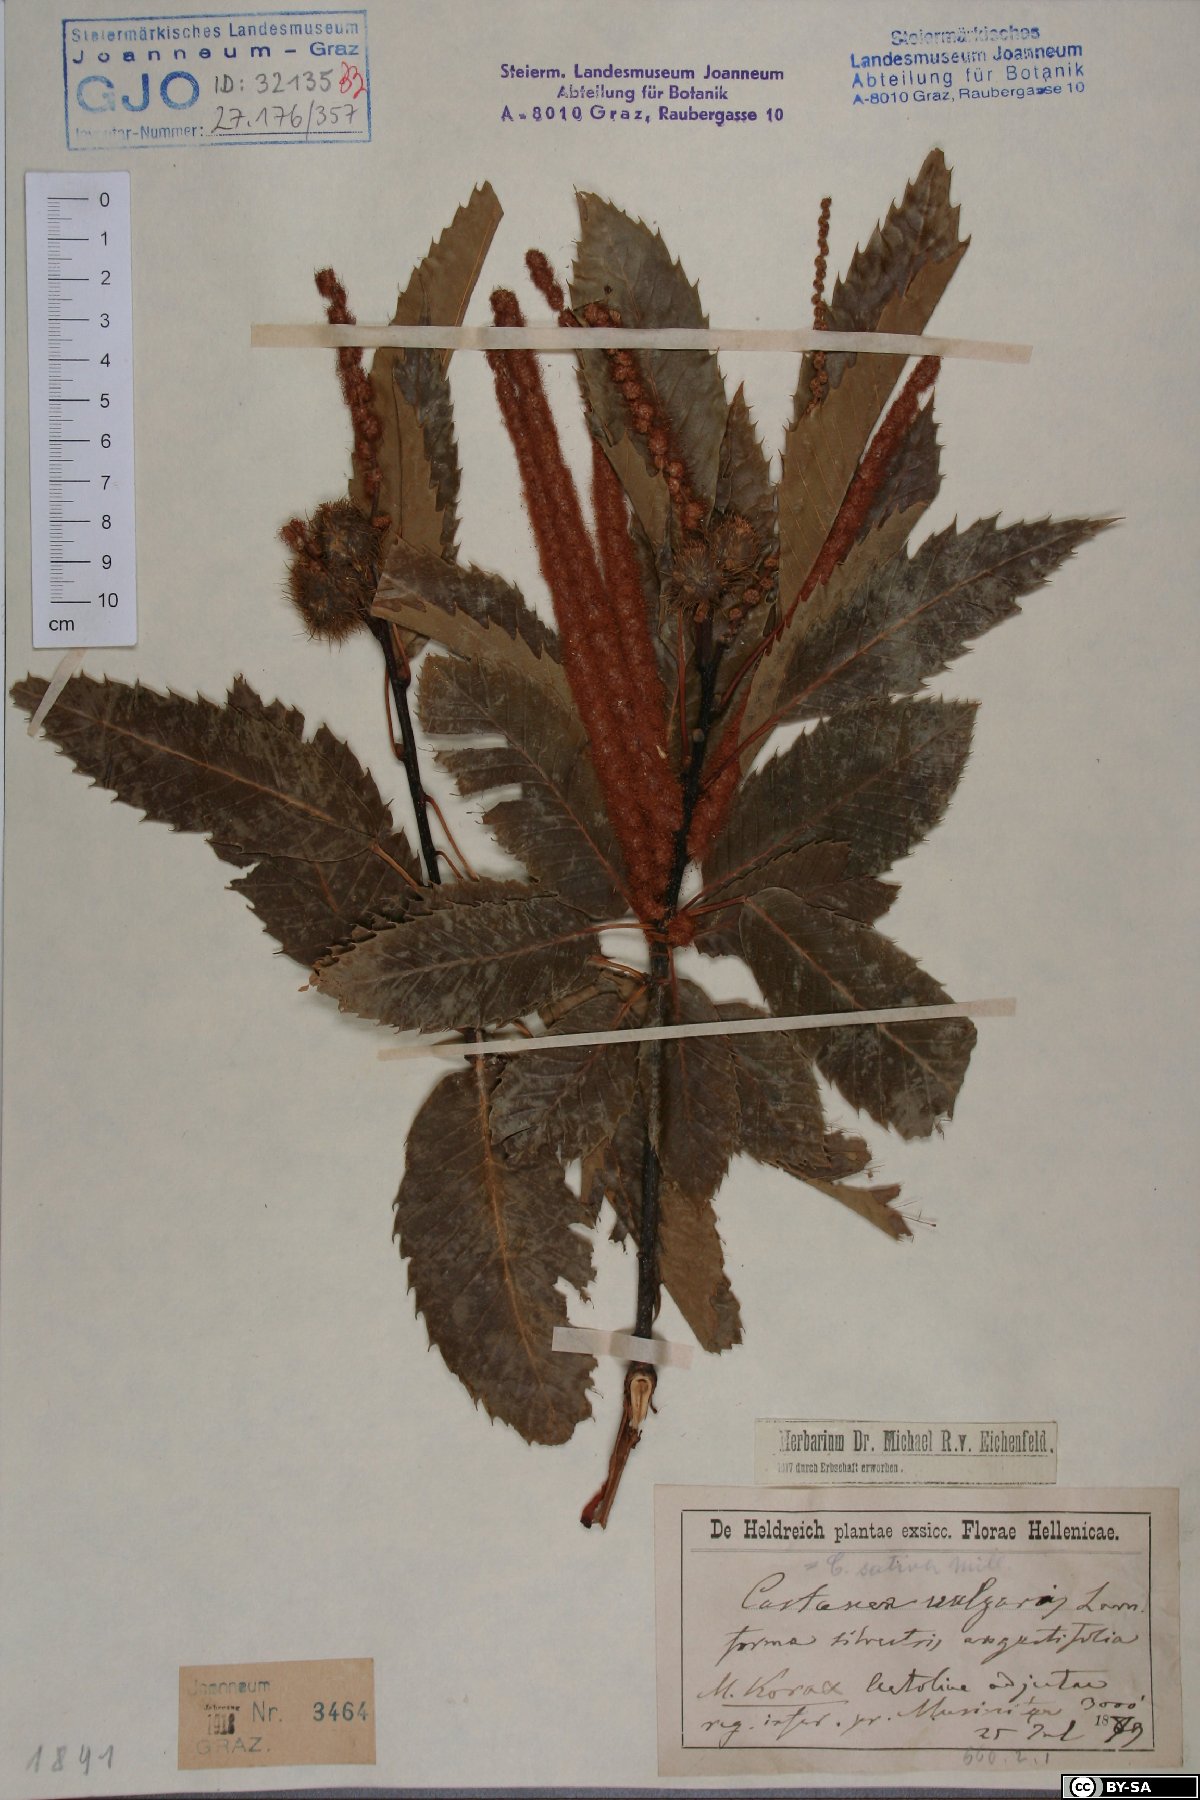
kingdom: Plantae
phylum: Tracheophyta
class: Magnoliopsida
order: Fagales
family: Fagaceae
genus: Castanea
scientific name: Castanea sativa
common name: Sweet chestnut
